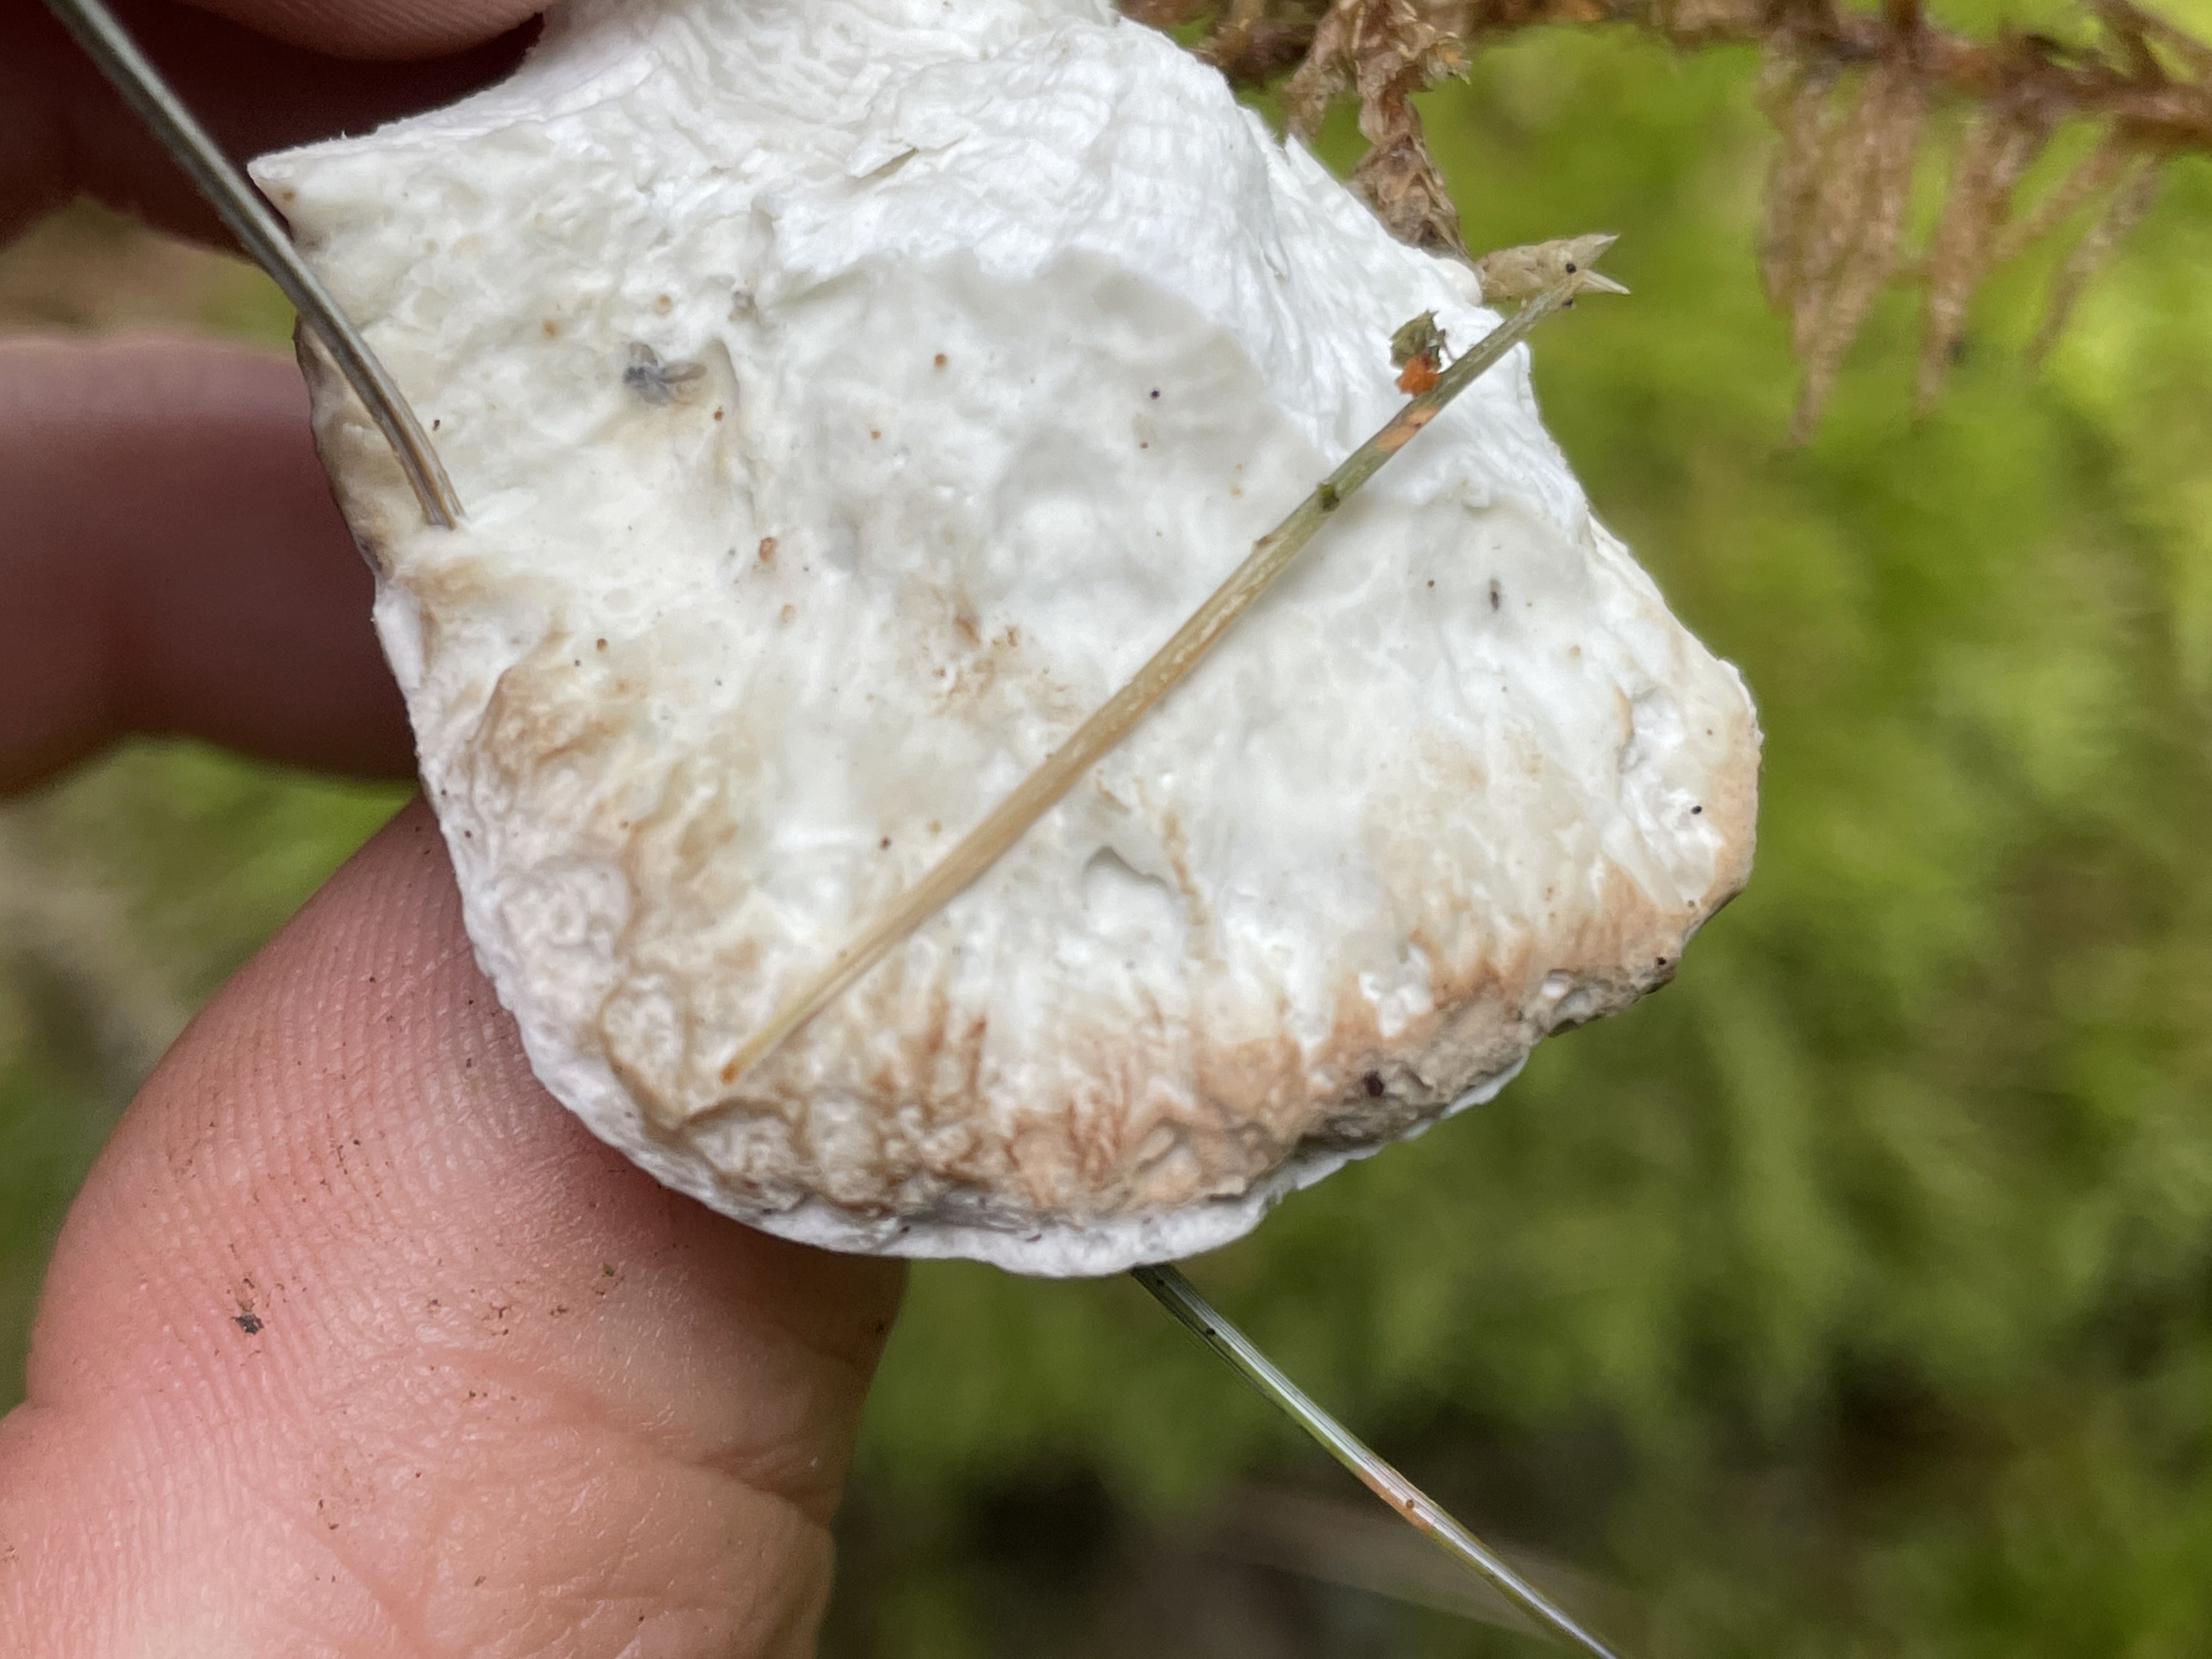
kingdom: Fungi
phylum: Basidiomycota
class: Agaricomycetes
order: Polyporales
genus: Calcipostia
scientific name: Calcipostia guttulata
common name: dråbe-kødporesvamp
